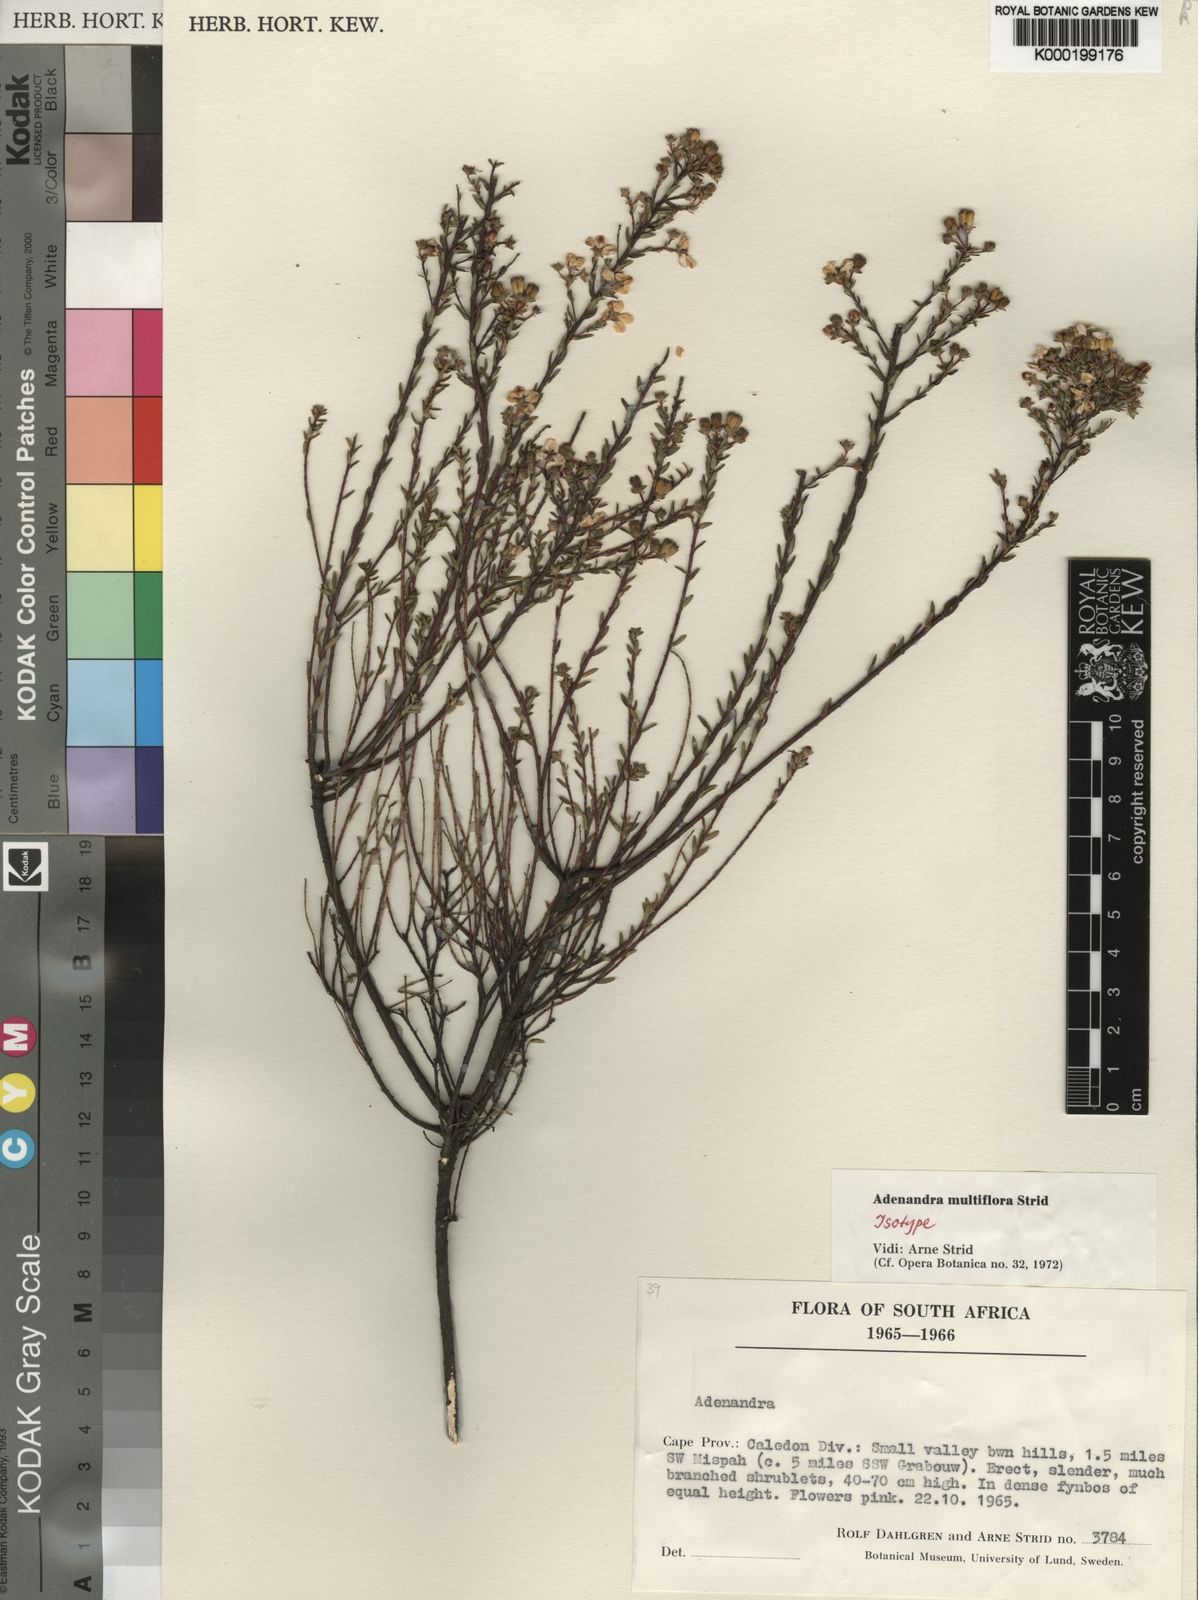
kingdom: Plantae
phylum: Tracheophyta
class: Magnoliopsida
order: Sapindales
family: Rutaceae
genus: Adenandra
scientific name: Adenandra multiflora
